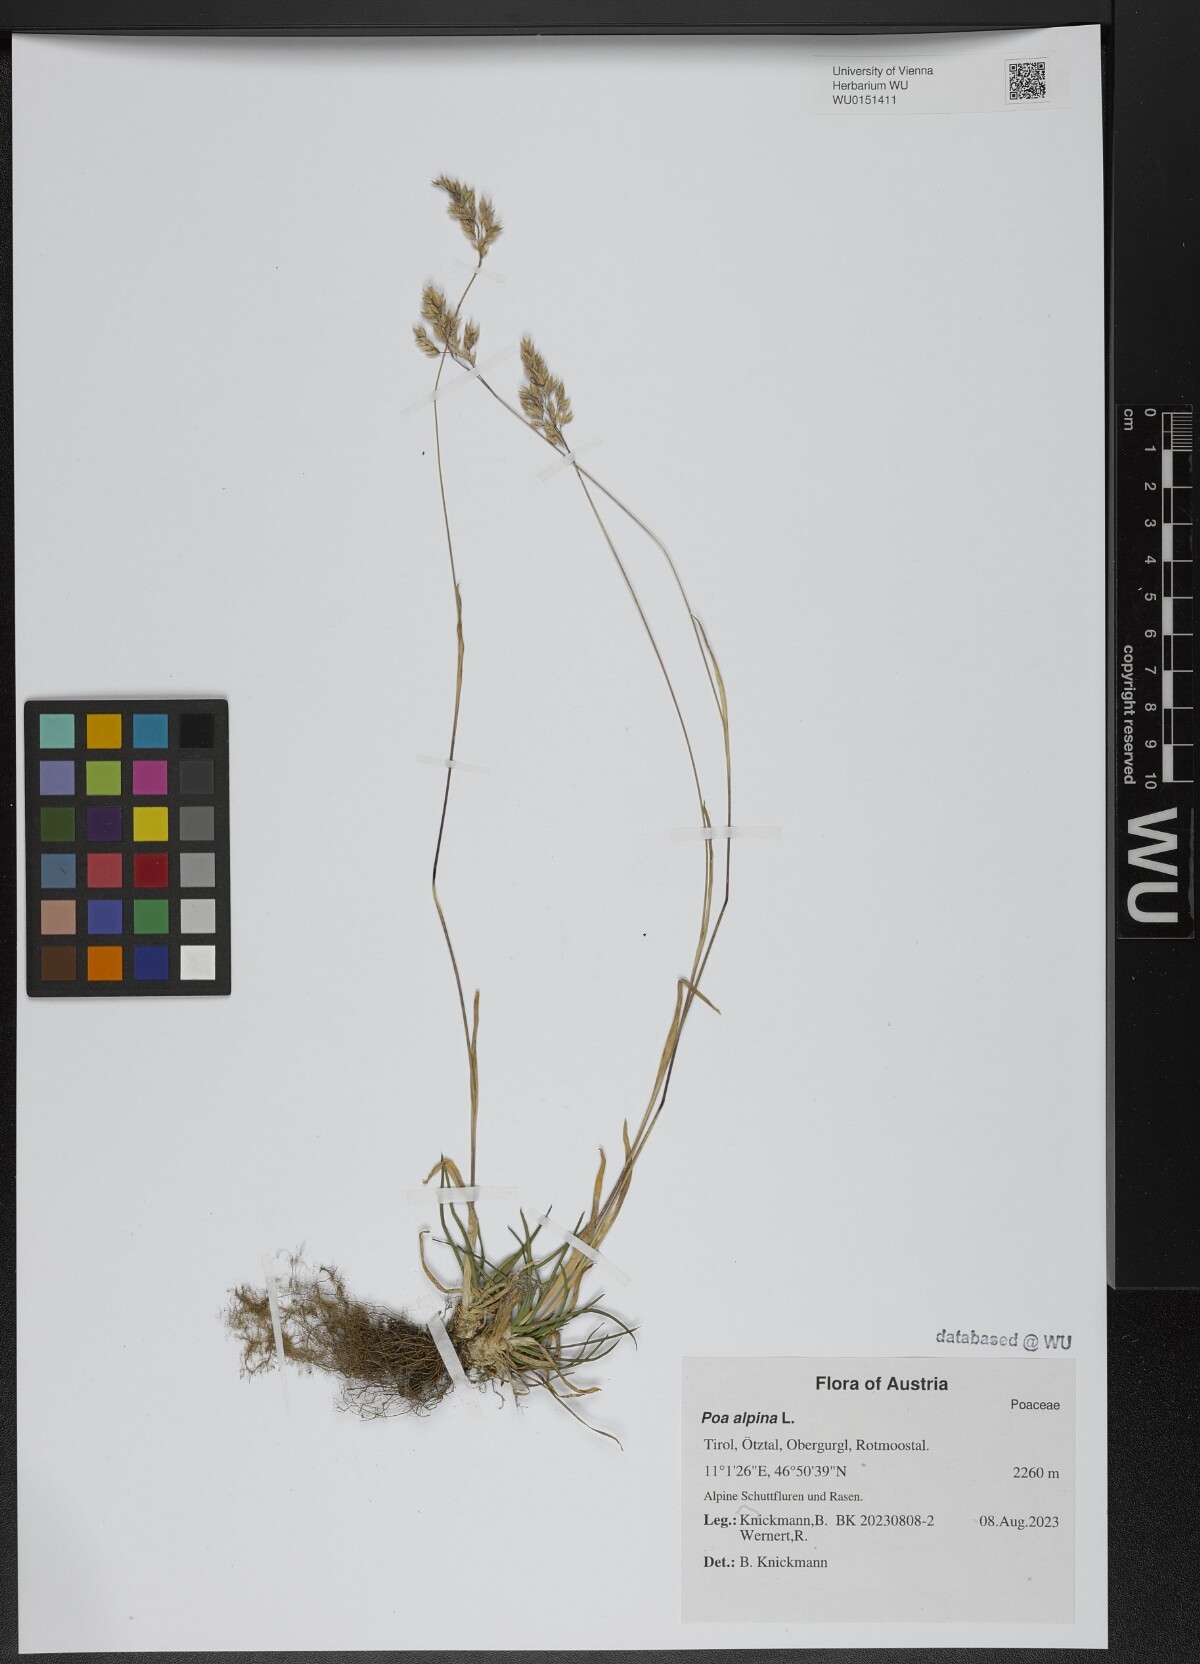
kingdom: Plantae
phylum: Tracheophyta
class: Liliopsida
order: Poales
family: Poaceae
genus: Poa
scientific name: Poa alpina
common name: Alpine bluegrass
